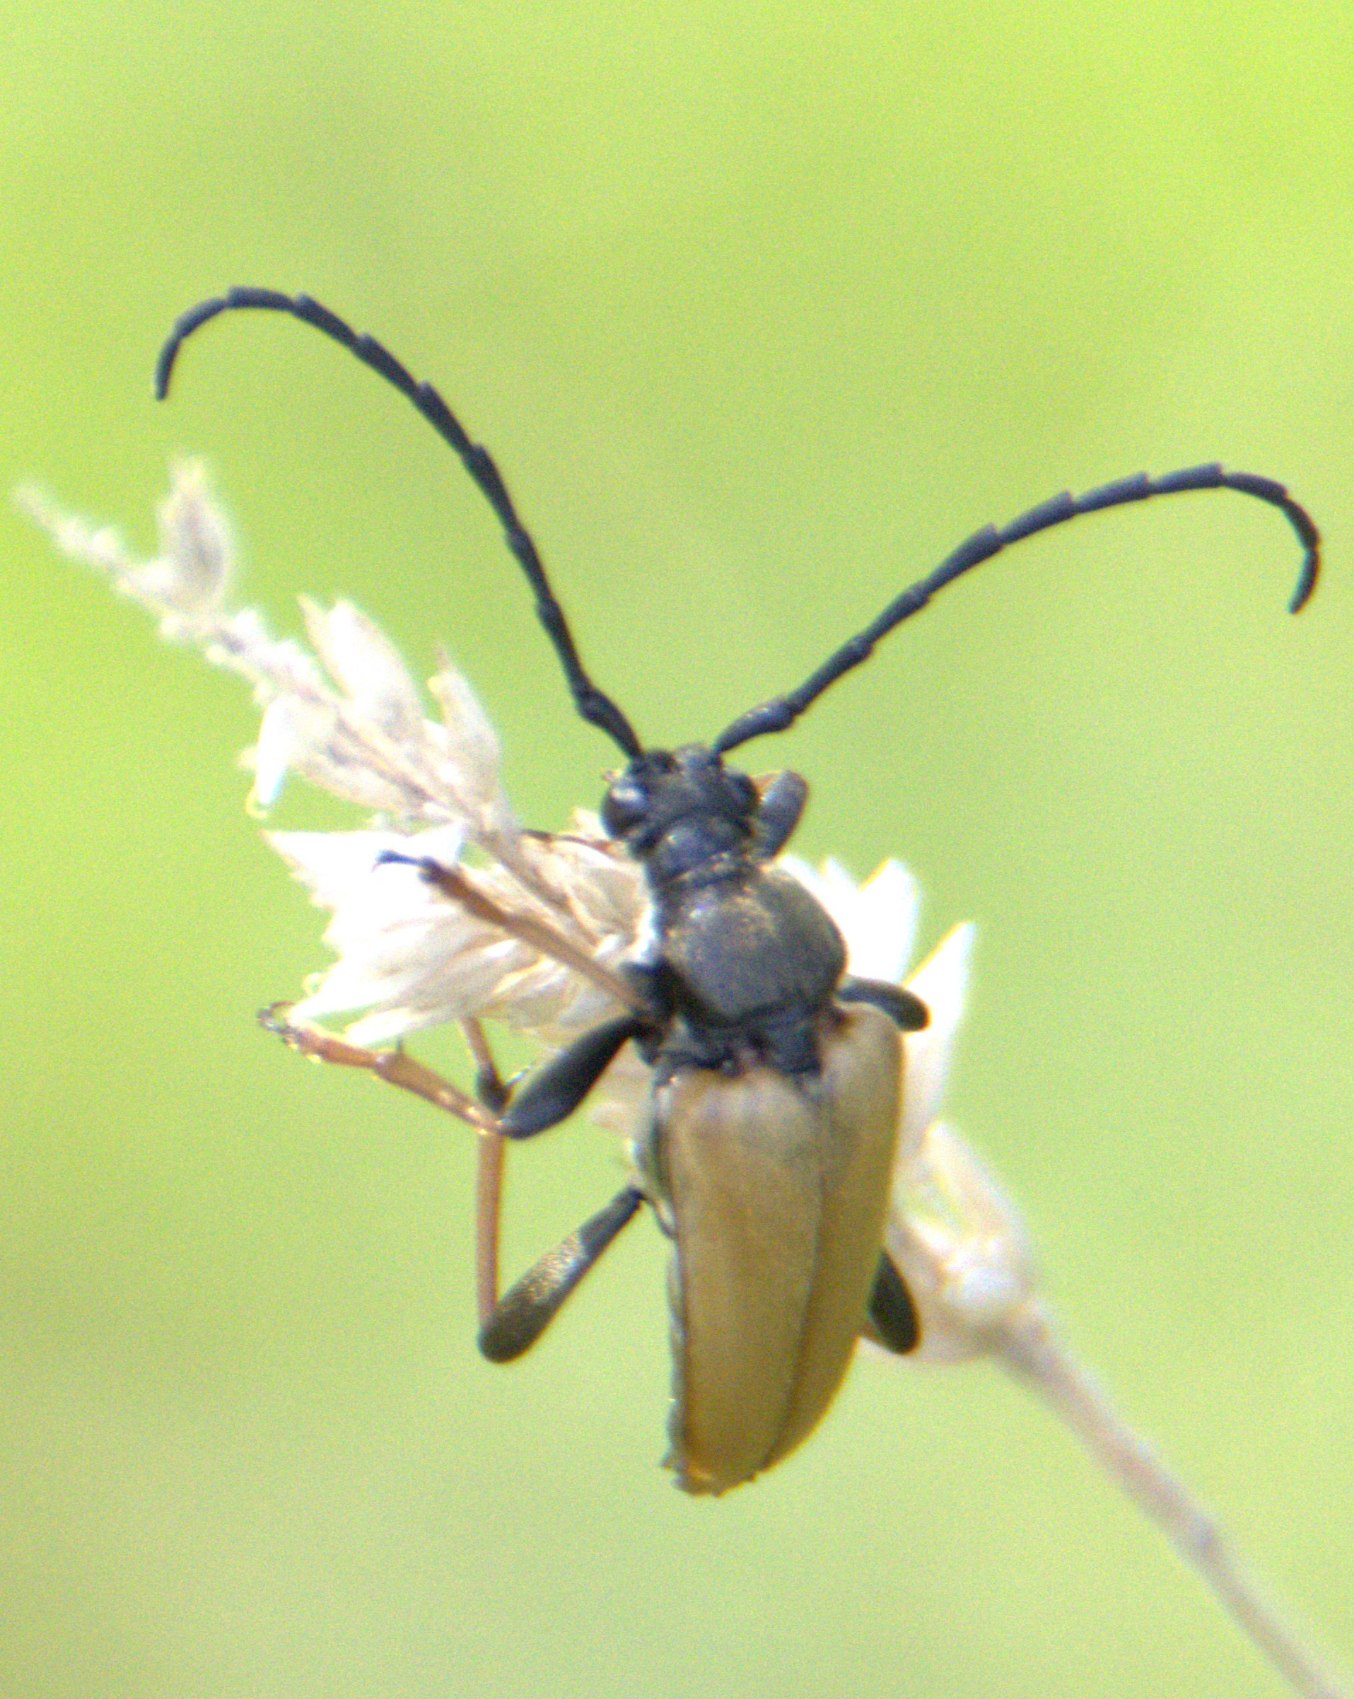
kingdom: Animalia
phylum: Arthropoda
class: Insecta
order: Coleoptera
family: Cerambycidae
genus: Stictoleptura
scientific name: Stictoleptura rubra
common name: Rød blomsterbuk
